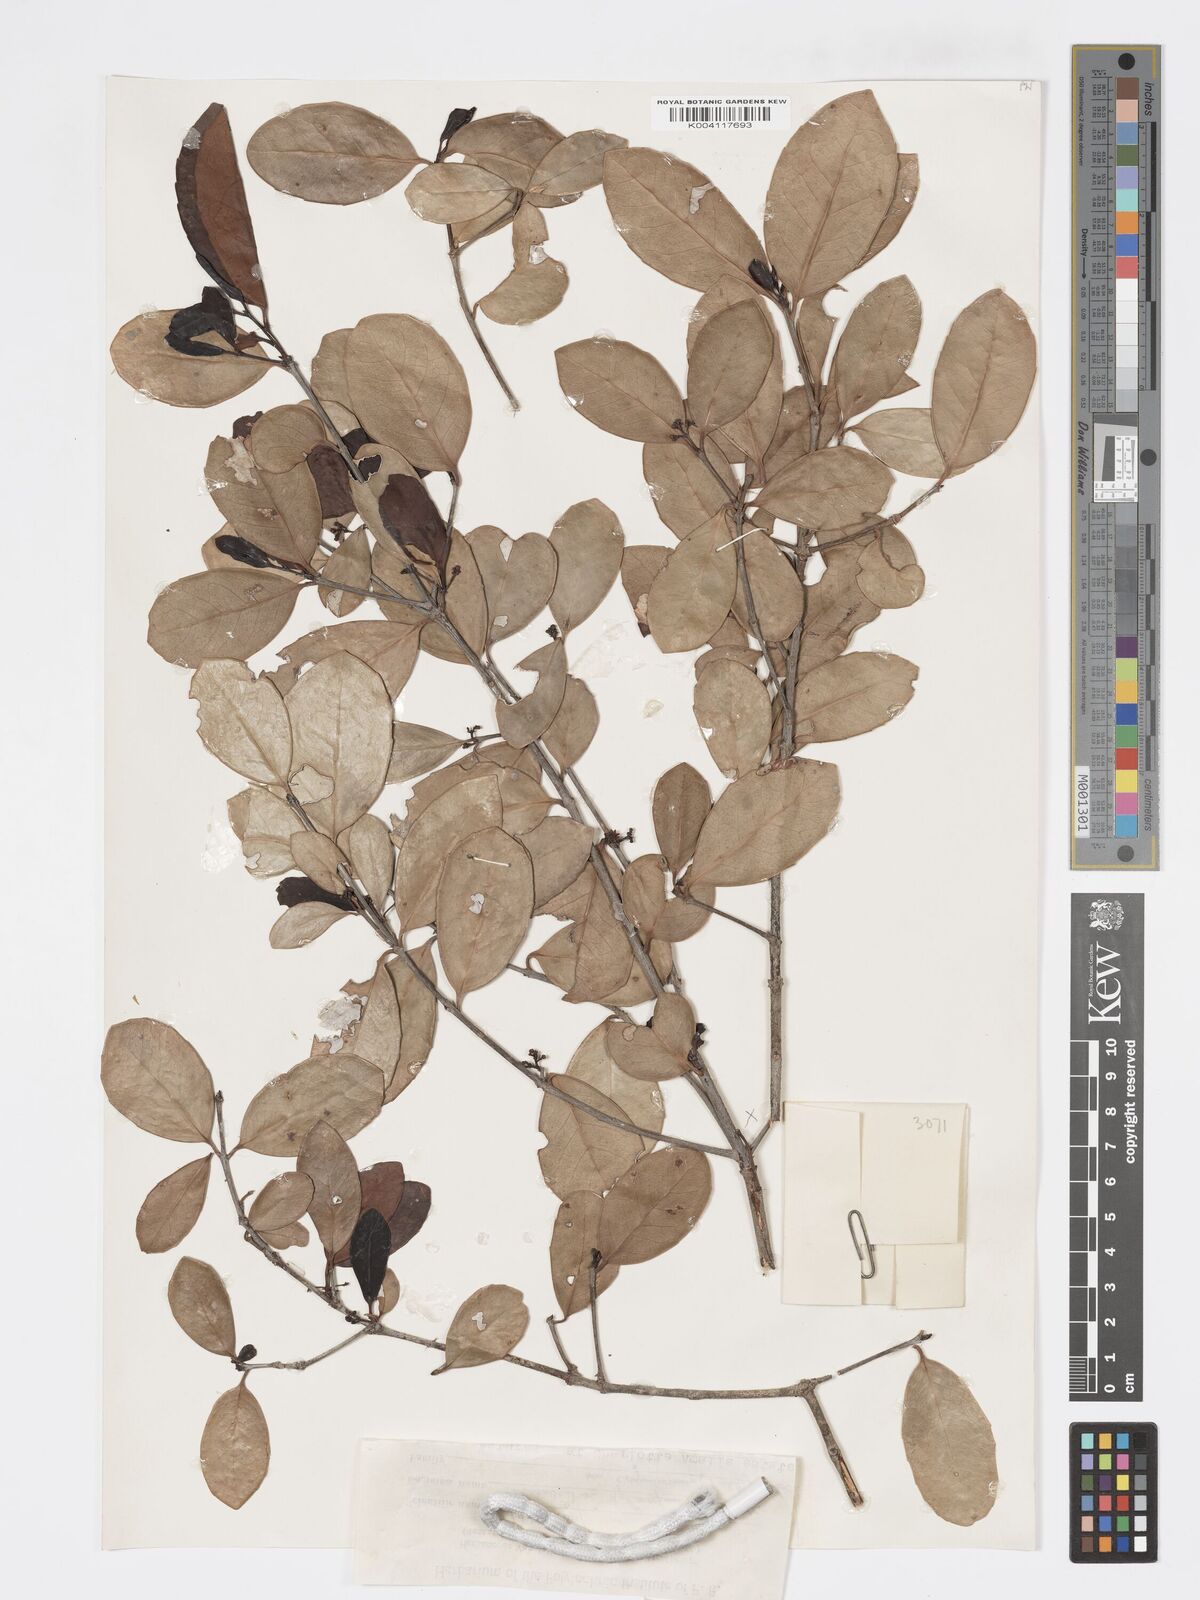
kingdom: Plantae
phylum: Tracheophyta
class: Magnoliopsida
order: Celastrales
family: Celastraceae
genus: Elaeodendron
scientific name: Elaeodendron
